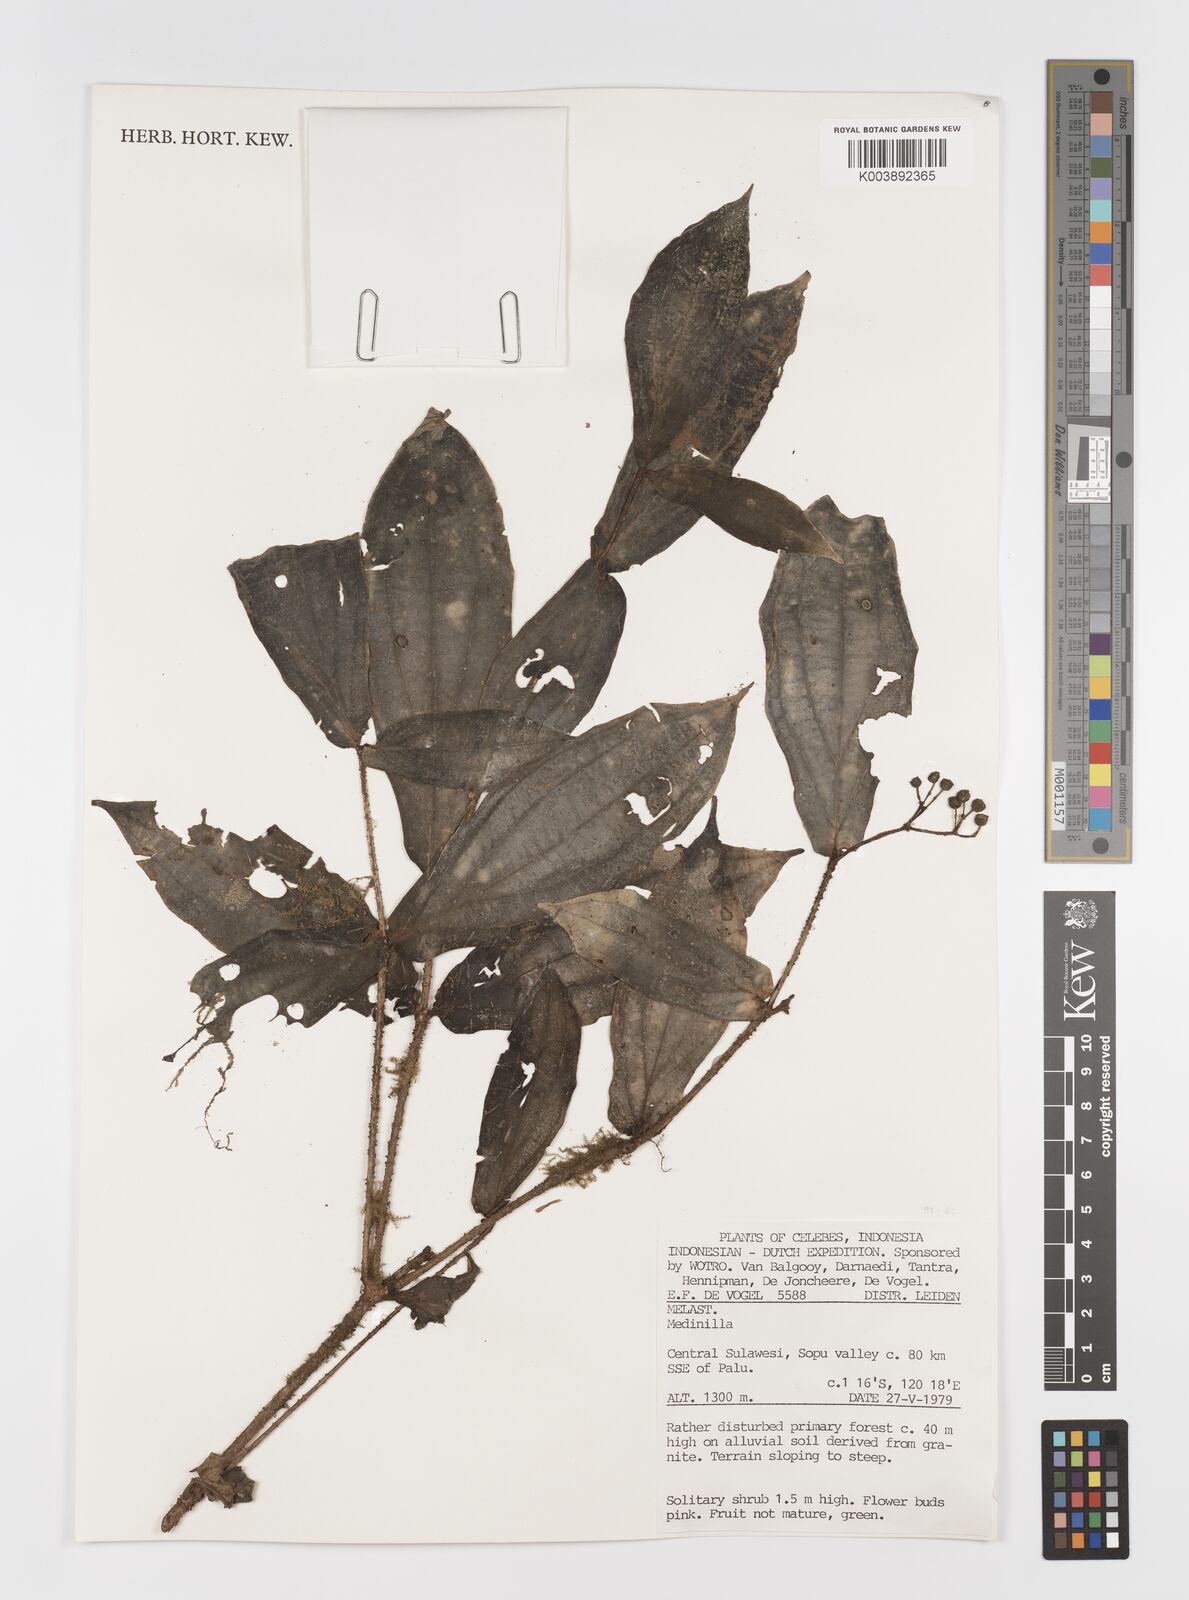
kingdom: Plantae
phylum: Tracheophyta
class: Magnoliopsida
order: Myrtales
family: Melastomataceae
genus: Medinilla
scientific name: Medinilla
